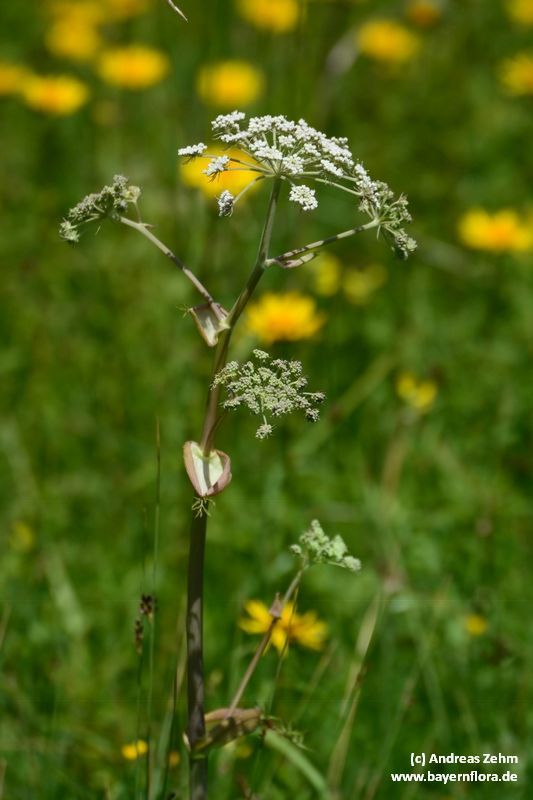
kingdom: Plantae
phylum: Tracheophyta
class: Magnoliopsida
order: Apiales
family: Apiaceae
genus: Angelica
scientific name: Angelica sylvestris
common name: Wild angelica
